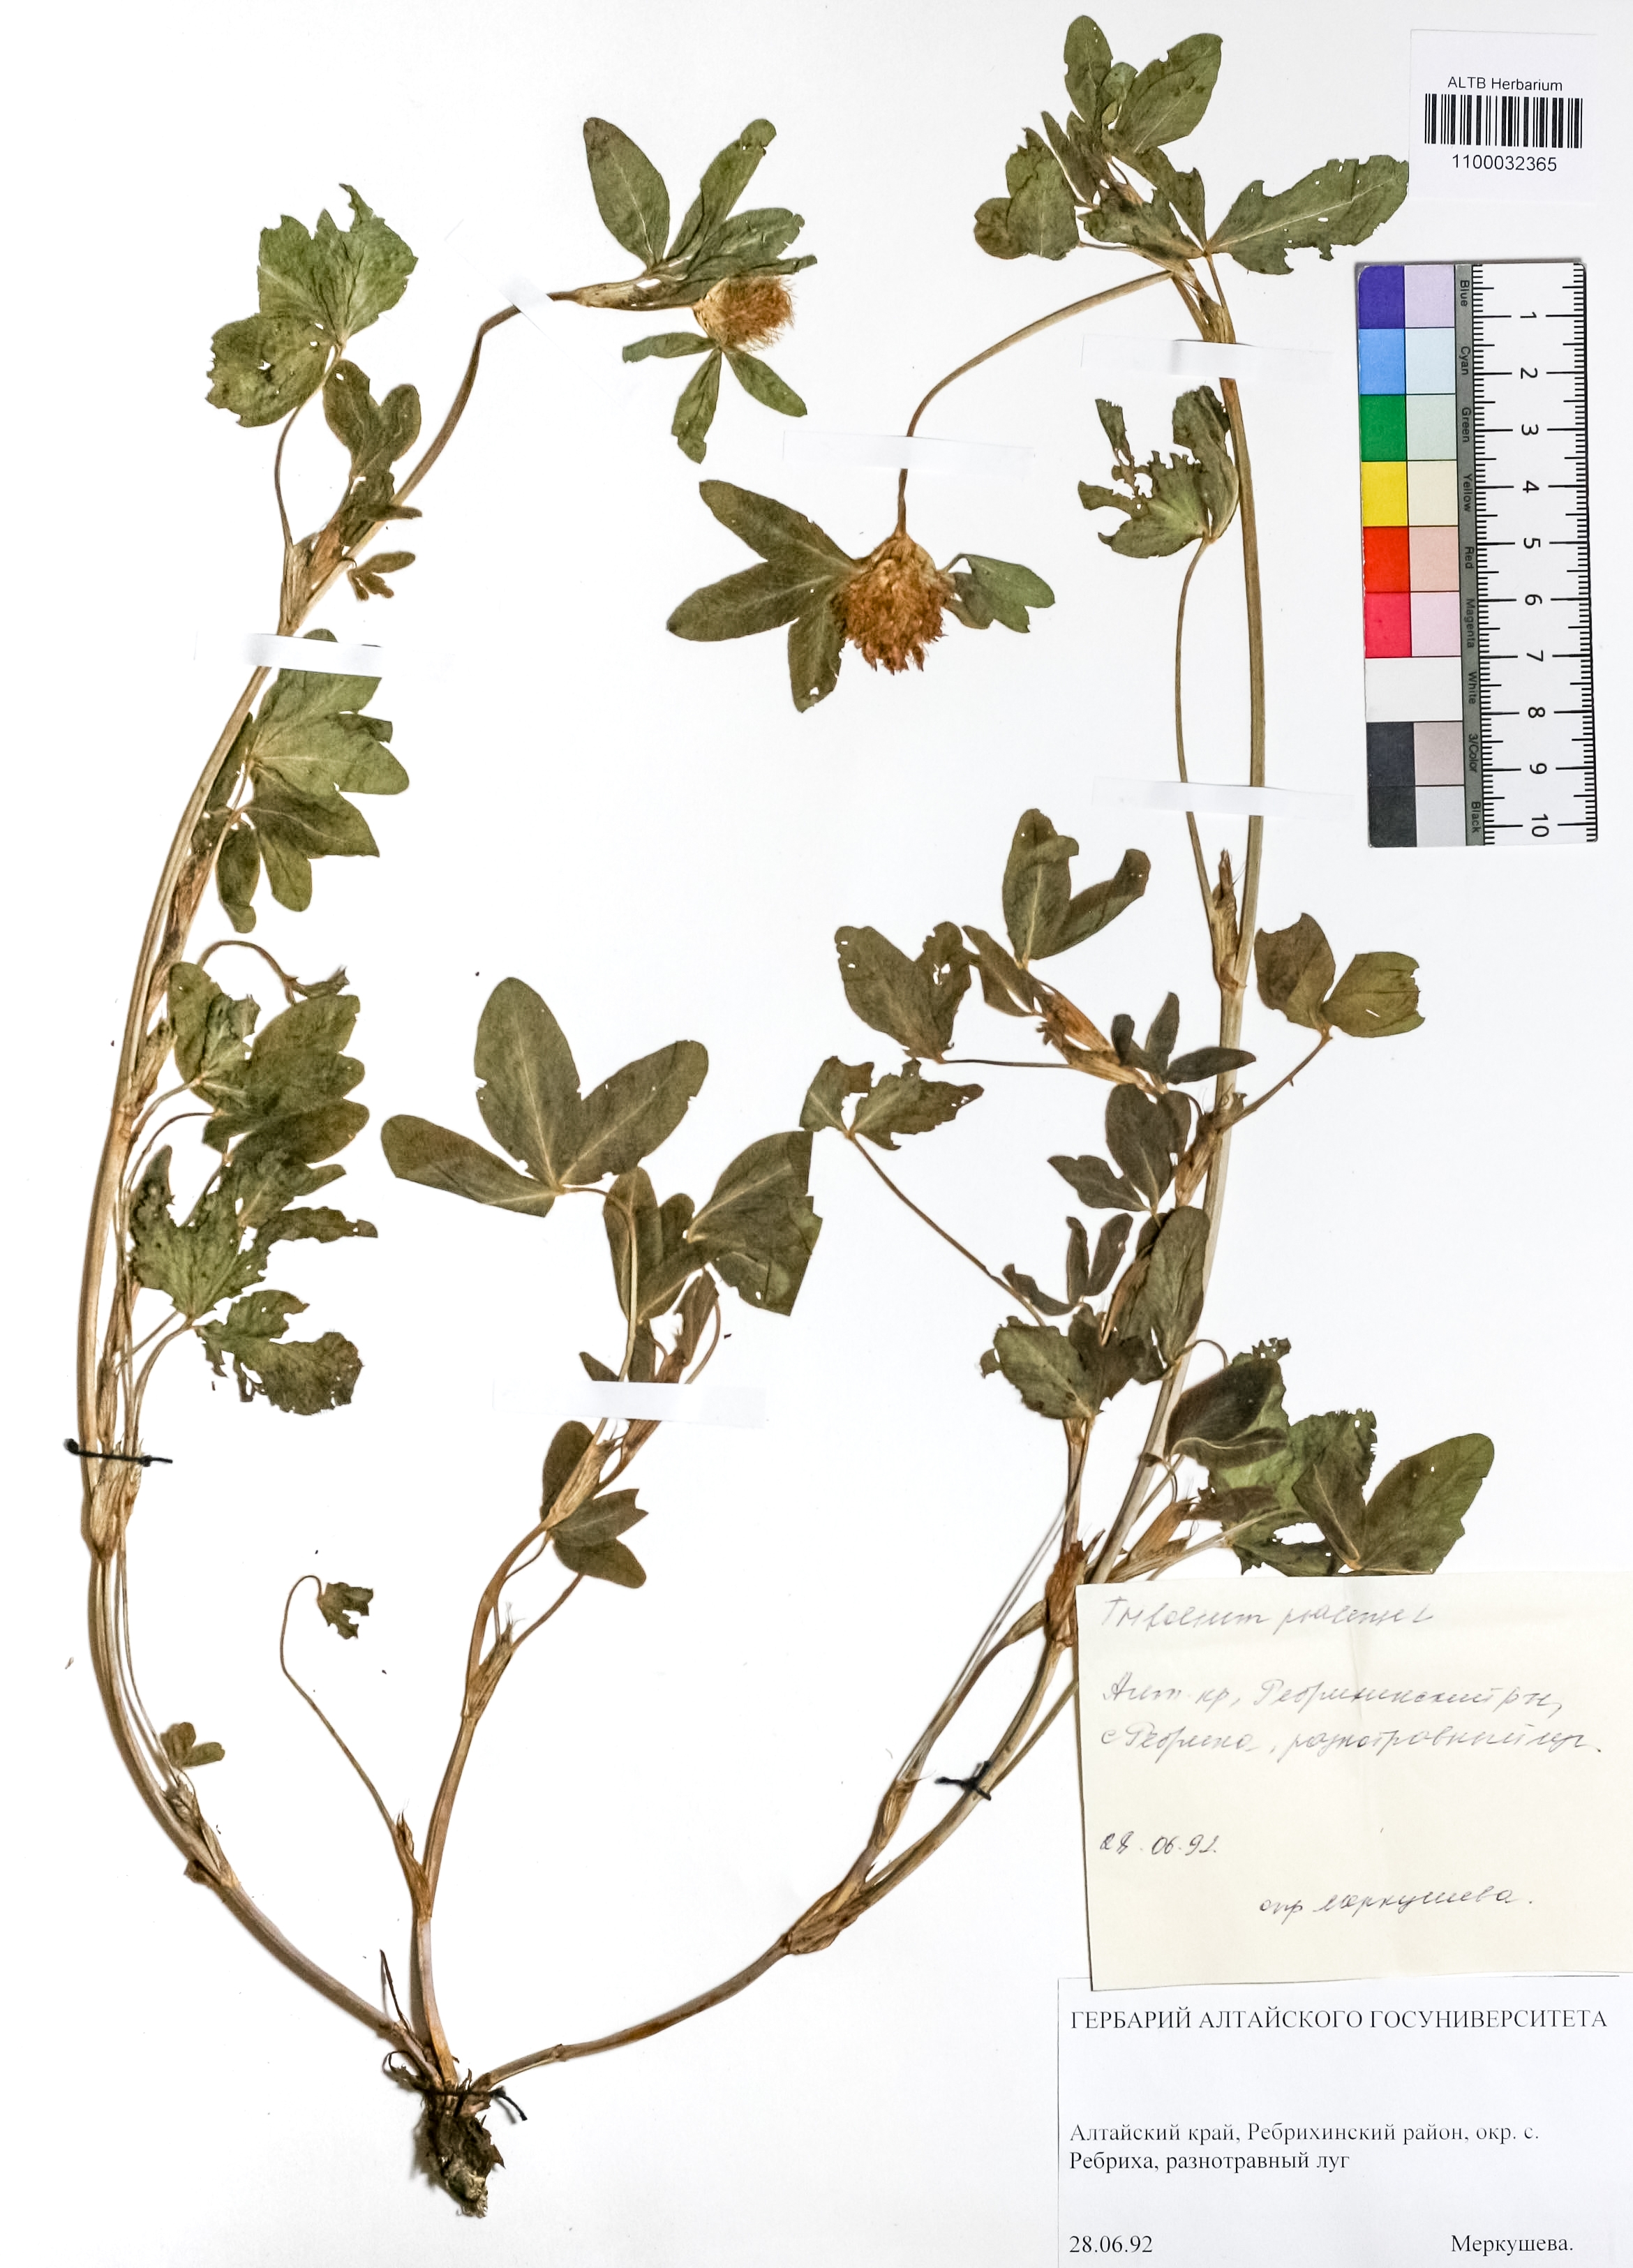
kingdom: Plantae
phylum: Tracheophyta
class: Magnoliopsida
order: Fabales
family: Fabaceae
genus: Trifolium
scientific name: Trifolium pratense
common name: Red clover
